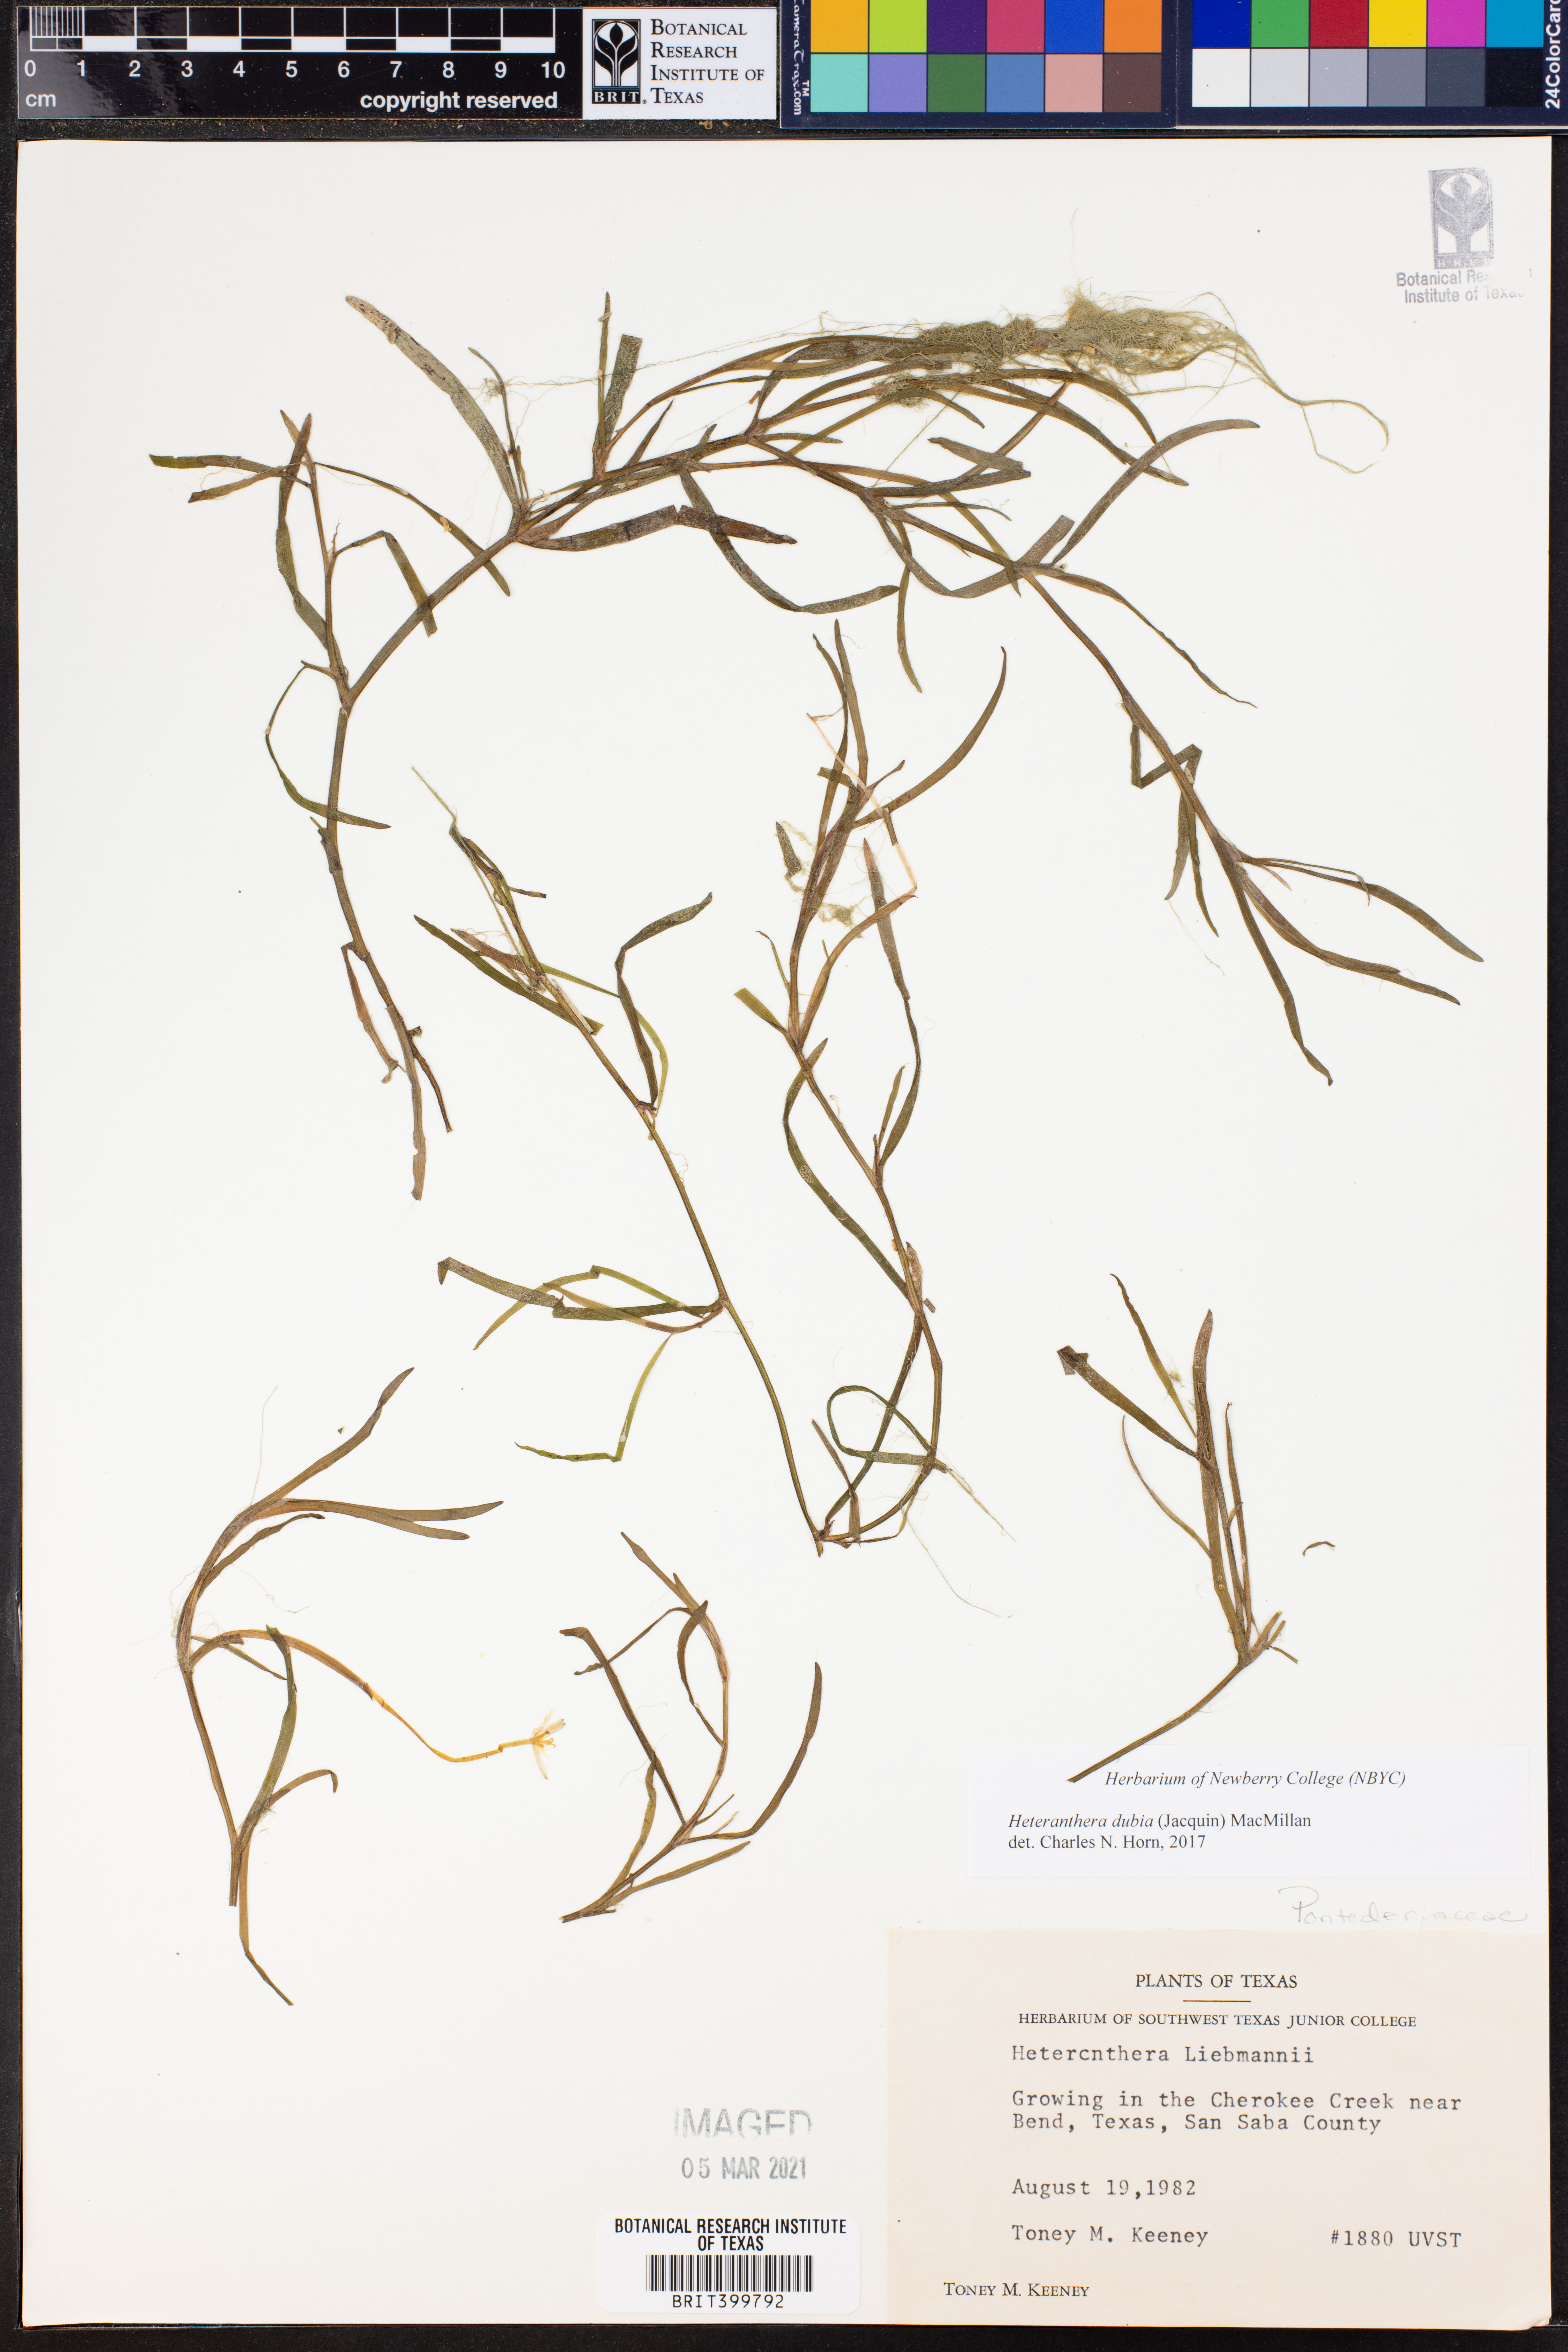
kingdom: Plantae
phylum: Tracheophyta
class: Liliopsida
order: Commelinales
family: Pontederiaceae
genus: Heteranthera
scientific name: Heteranthera dubia
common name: Grass-leaved mud plantain
